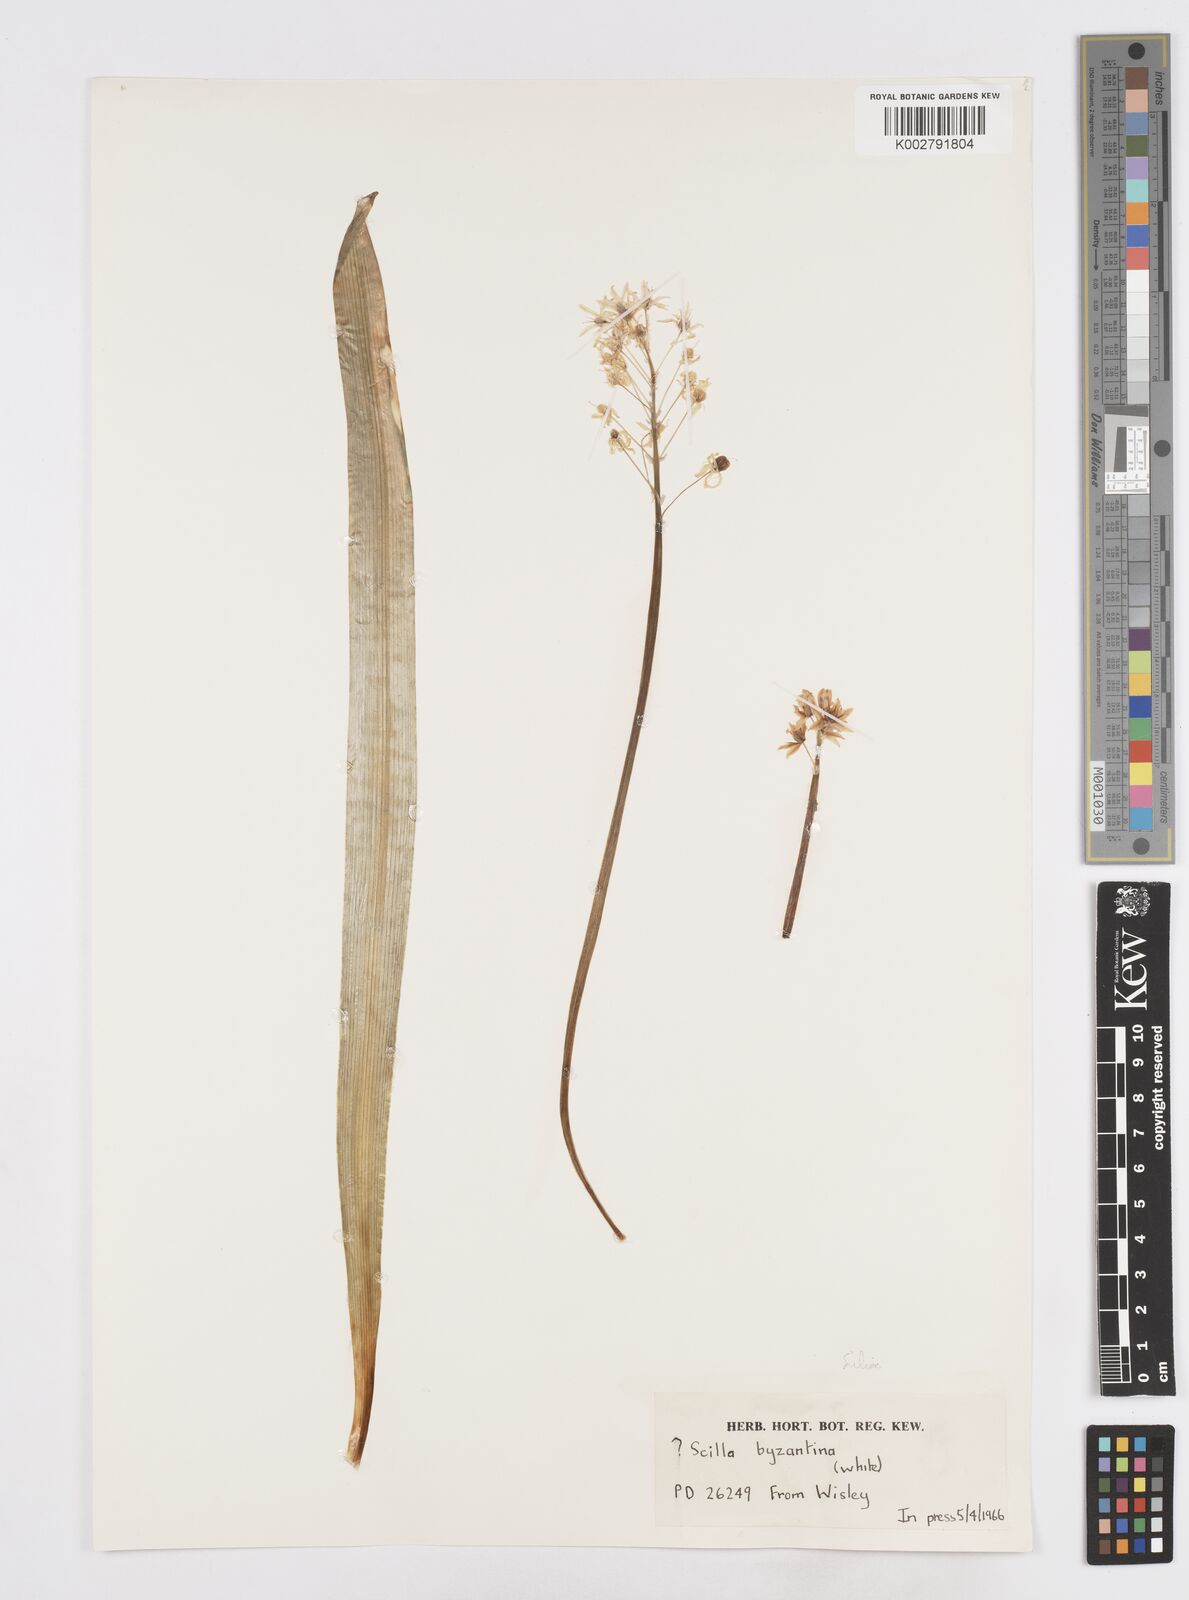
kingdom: Plantae
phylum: Tracheophyta
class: Liliopsida
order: Asparagales
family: Asparagaceae
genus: Hyacinthoides
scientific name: Hyacinthoides italica
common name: Italian bluebell
